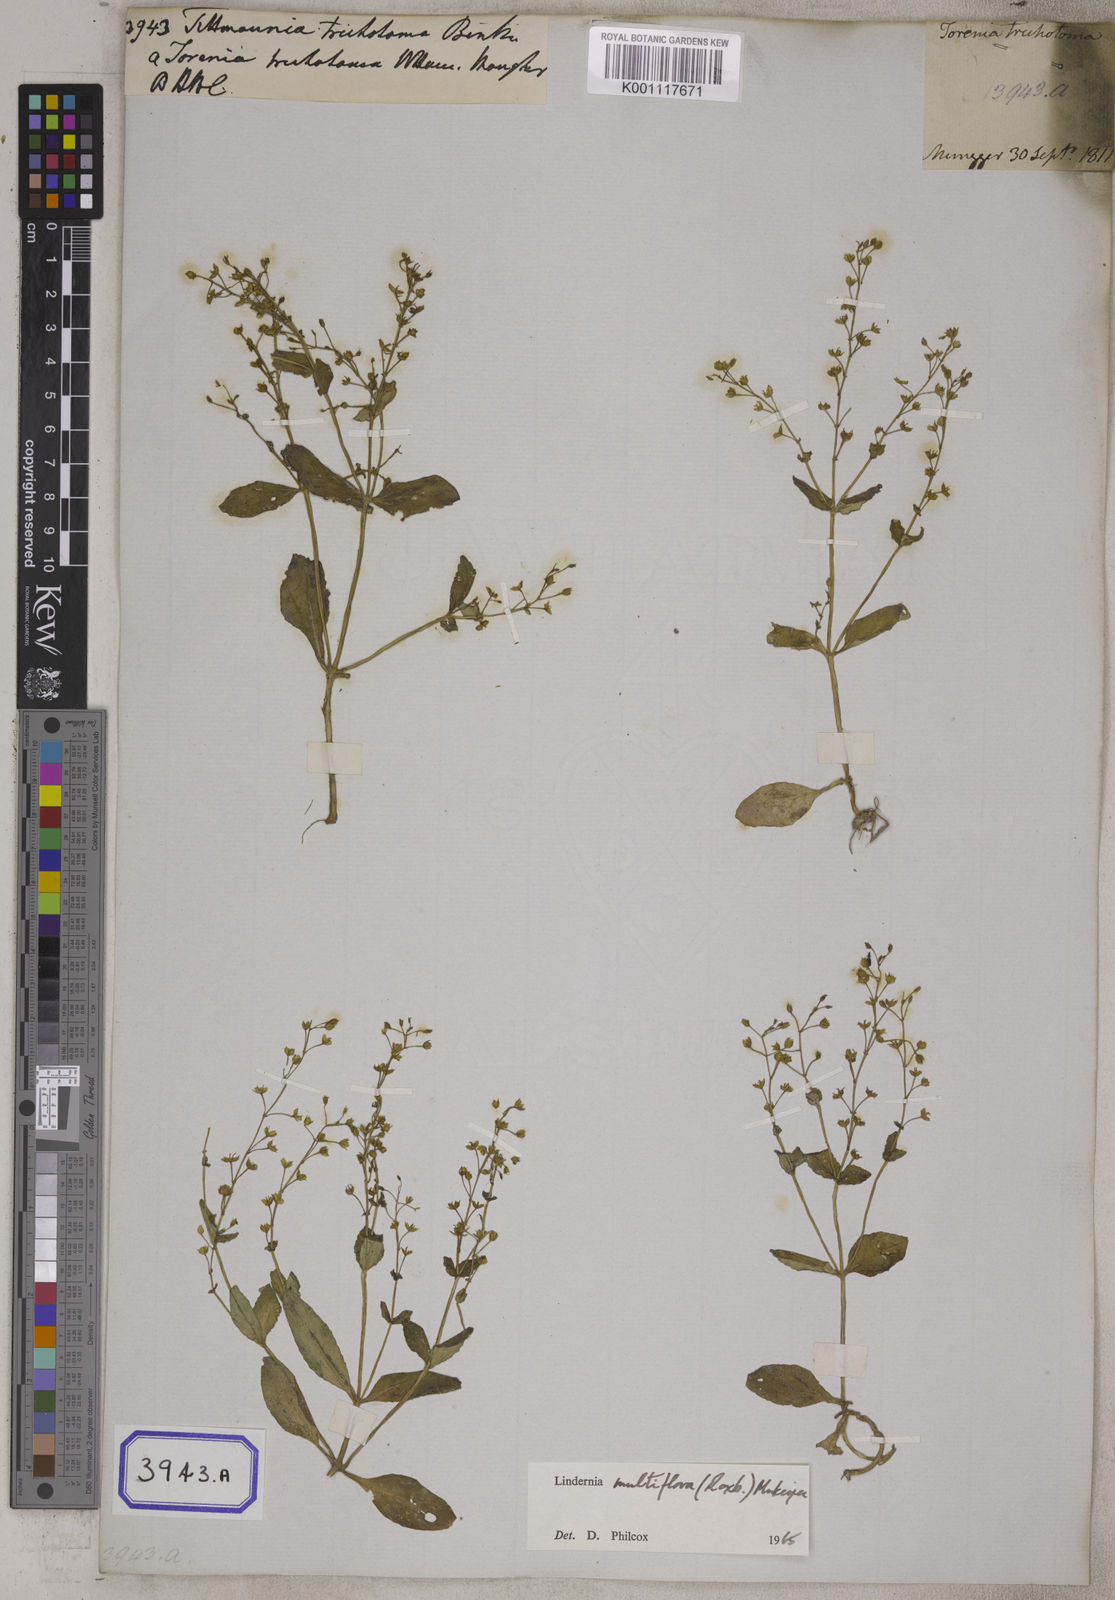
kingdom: Plantae
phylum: Tracheophyta
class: Magnoliopsida
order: Lamiales
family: Linderniaceae
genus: Vandellia
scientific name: Vandellia multiflora
